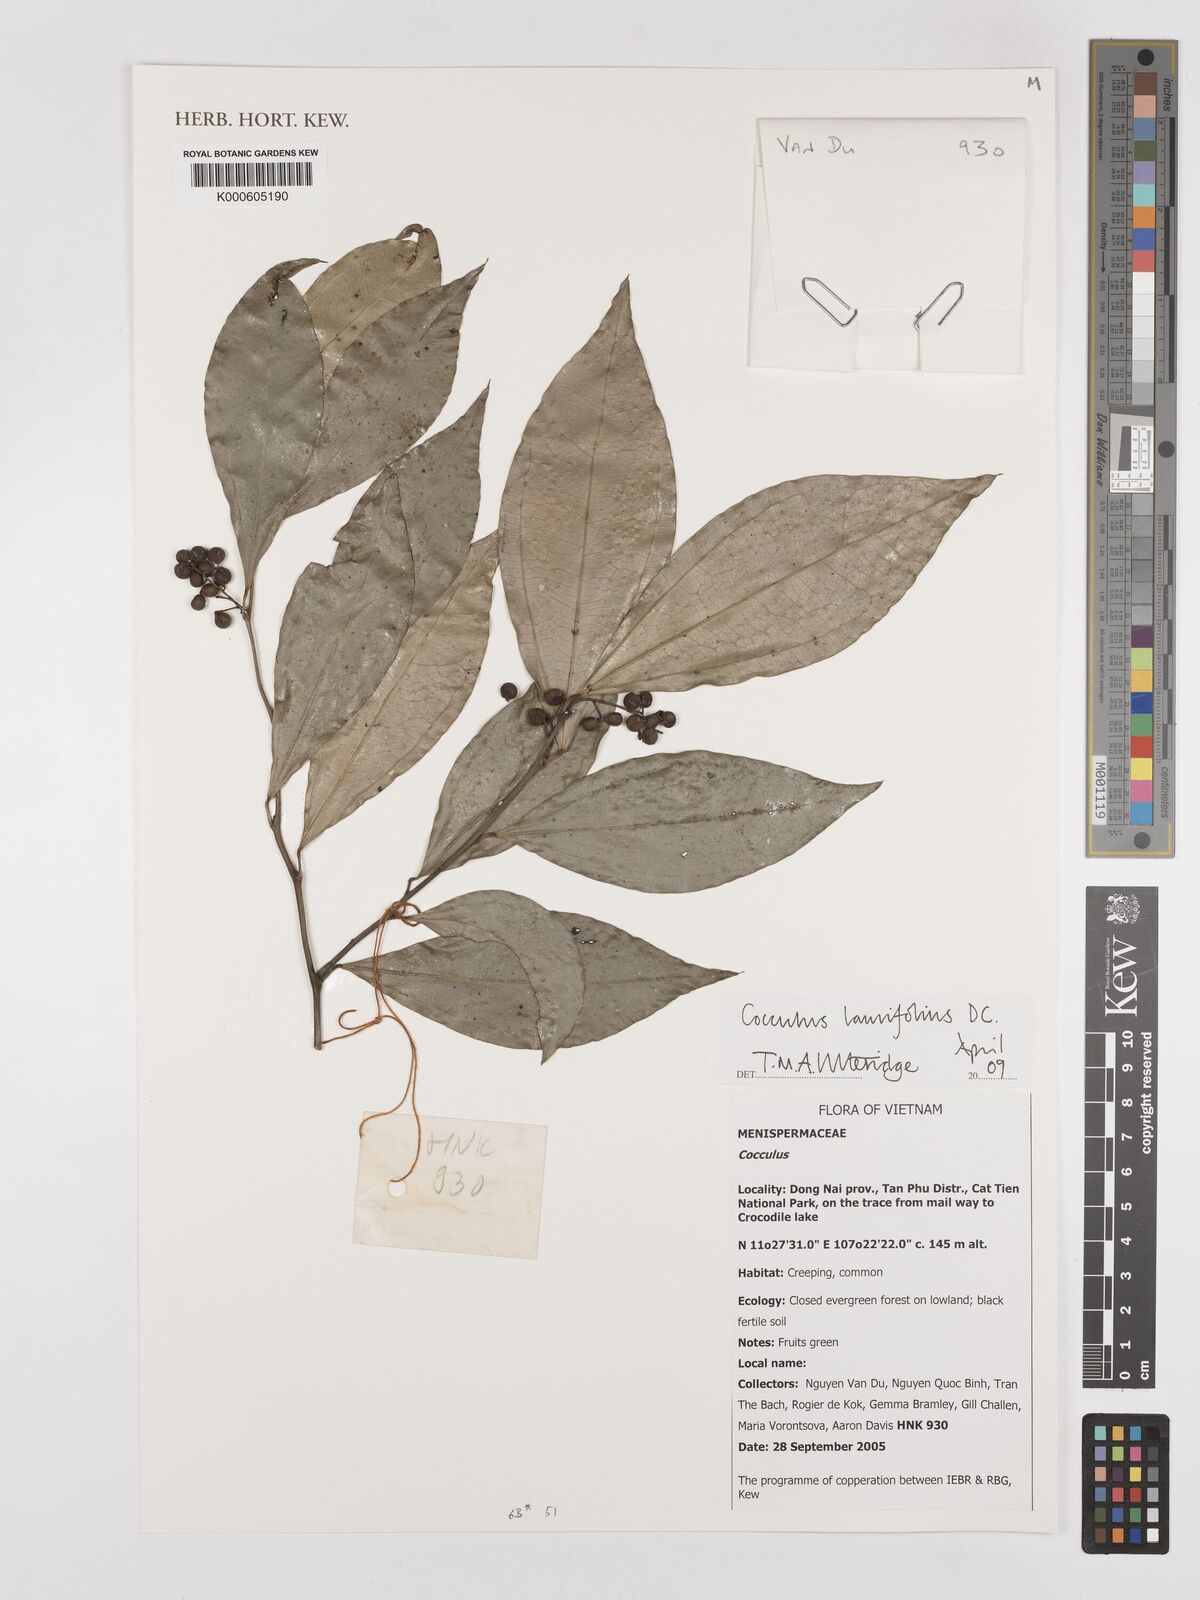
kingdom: Plantae
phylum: Tracheophyta
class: Magnoliopsida
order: Ranunculales
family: Menispermaceae
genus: Cocculus
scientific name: Cocculus laurifolius
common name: Laurel-leaf snailseed
